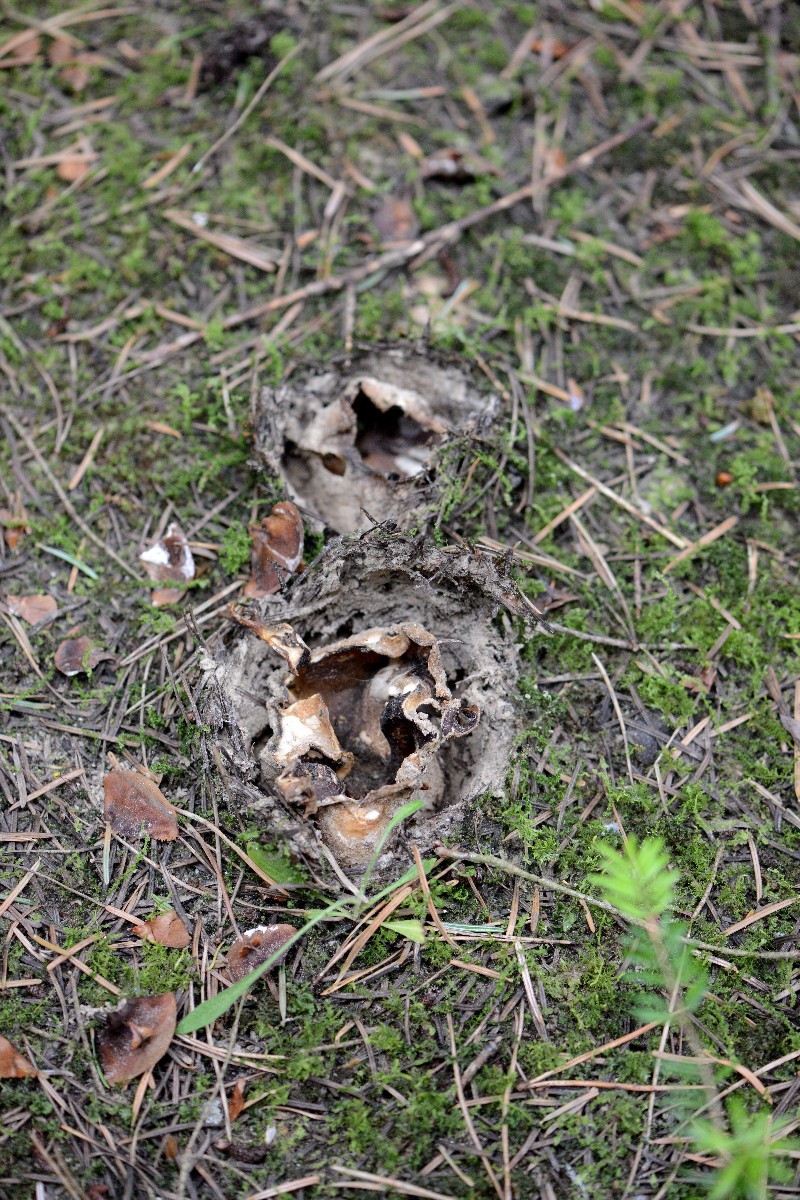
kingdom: Fungi
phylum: Ascomycota
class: Pezizomycetes
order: Pezizales
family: Pezizaceae
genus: Sarcosphaera
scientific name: Sarcosphaera coronaria
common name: stjernebæger
